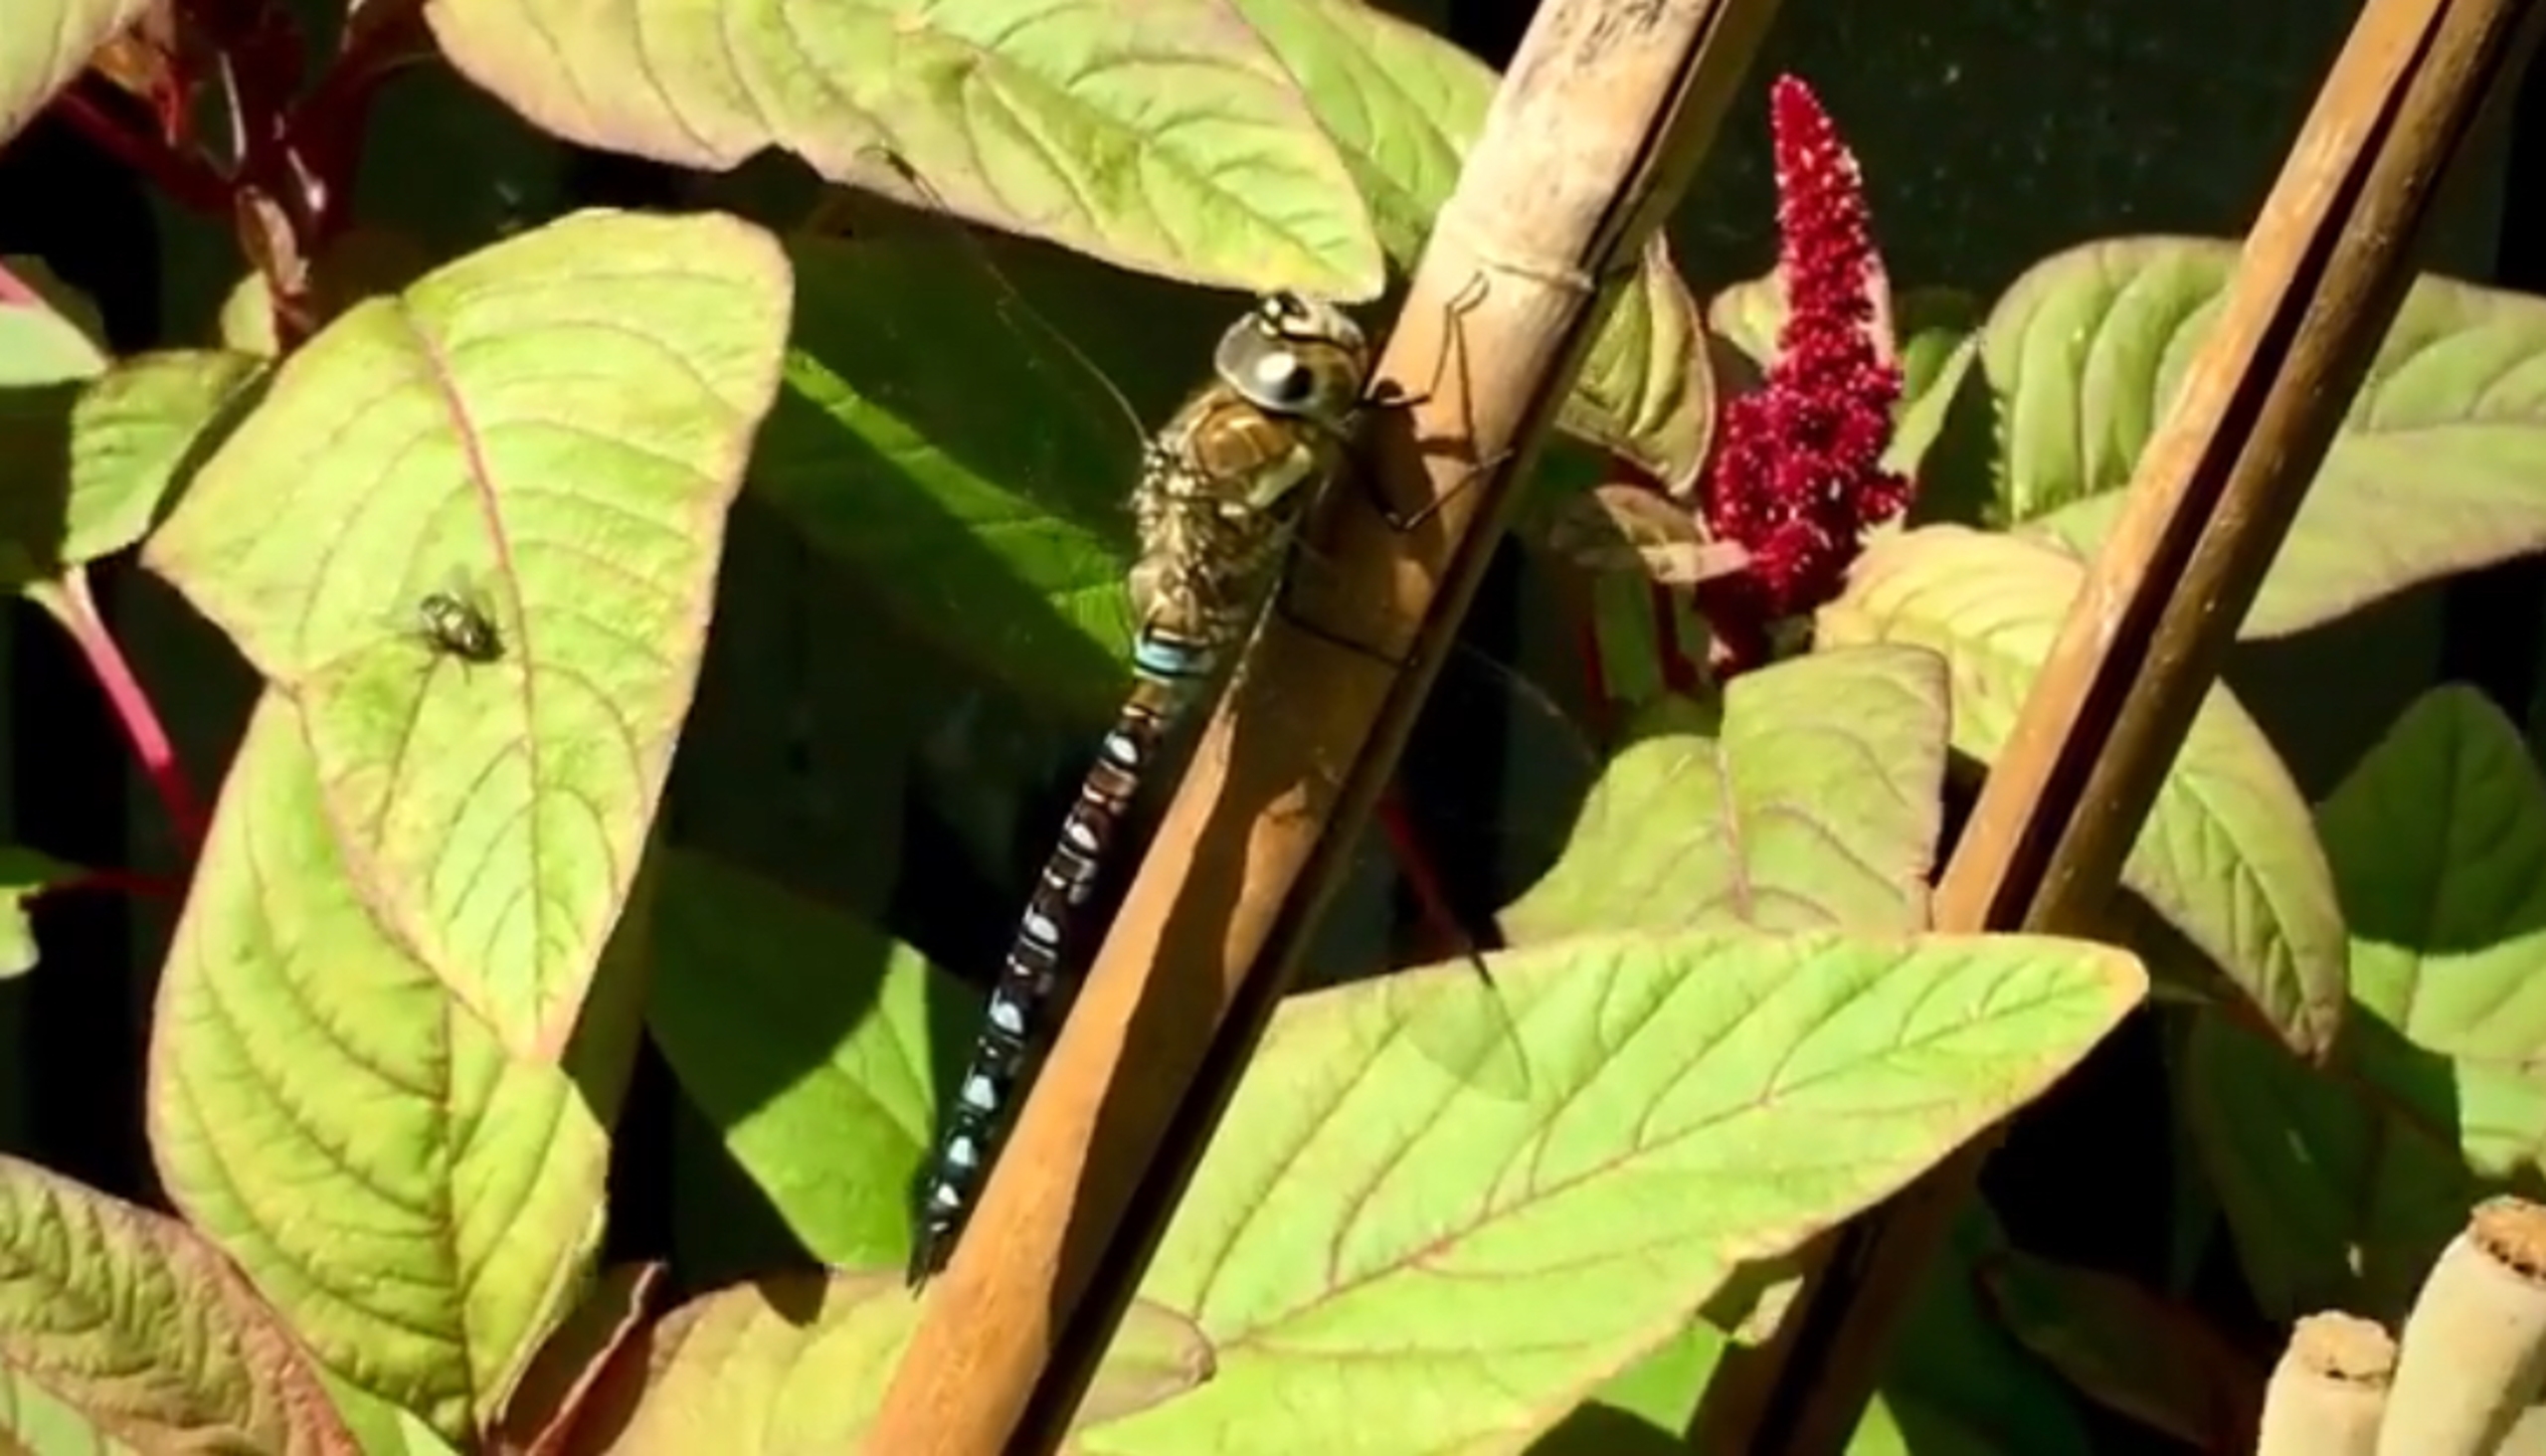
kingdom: Animalia
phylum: Arthropoda
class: Insecta
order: Odonata
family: Aeshnidae
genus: Aeshna
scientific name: Aeshna mixta
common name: Efterårs-mosaikguldsmed
